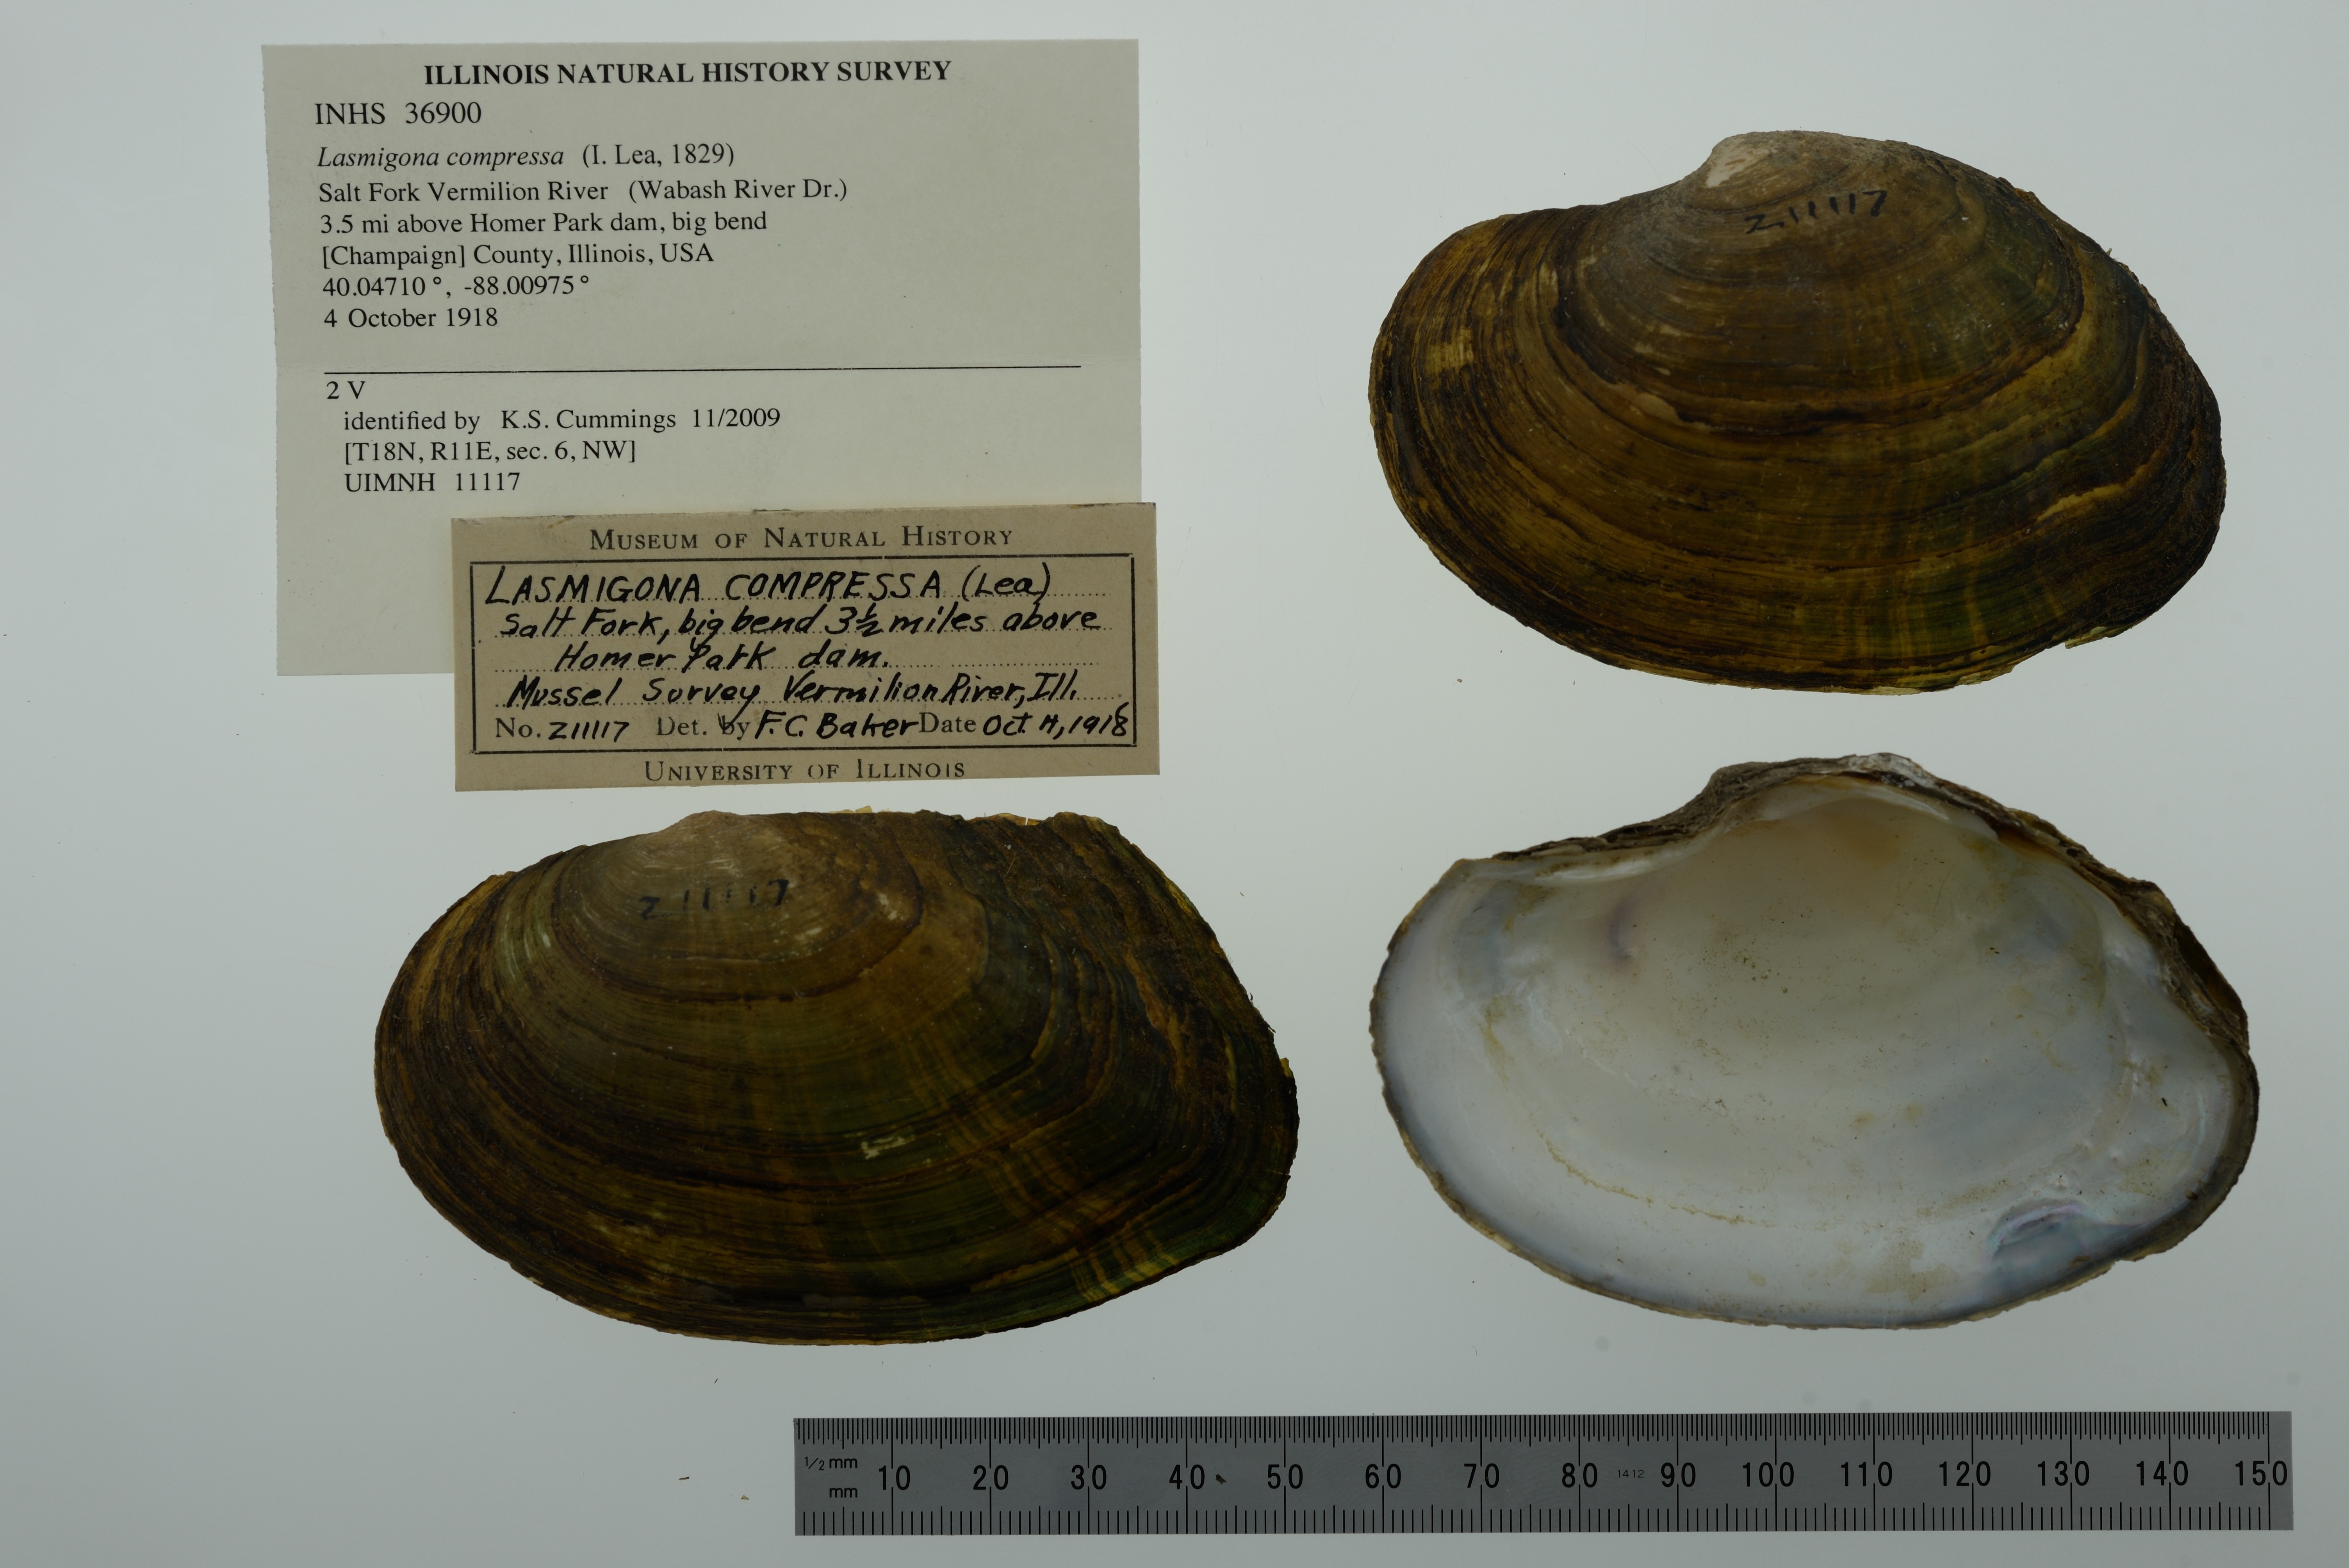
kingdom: Animalia
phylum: Mollusca
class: Bivalvia
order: Unionida
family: Unionidae
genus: Lasmigona
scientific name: Lasmigona compressa
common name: Creek heelsplitter
